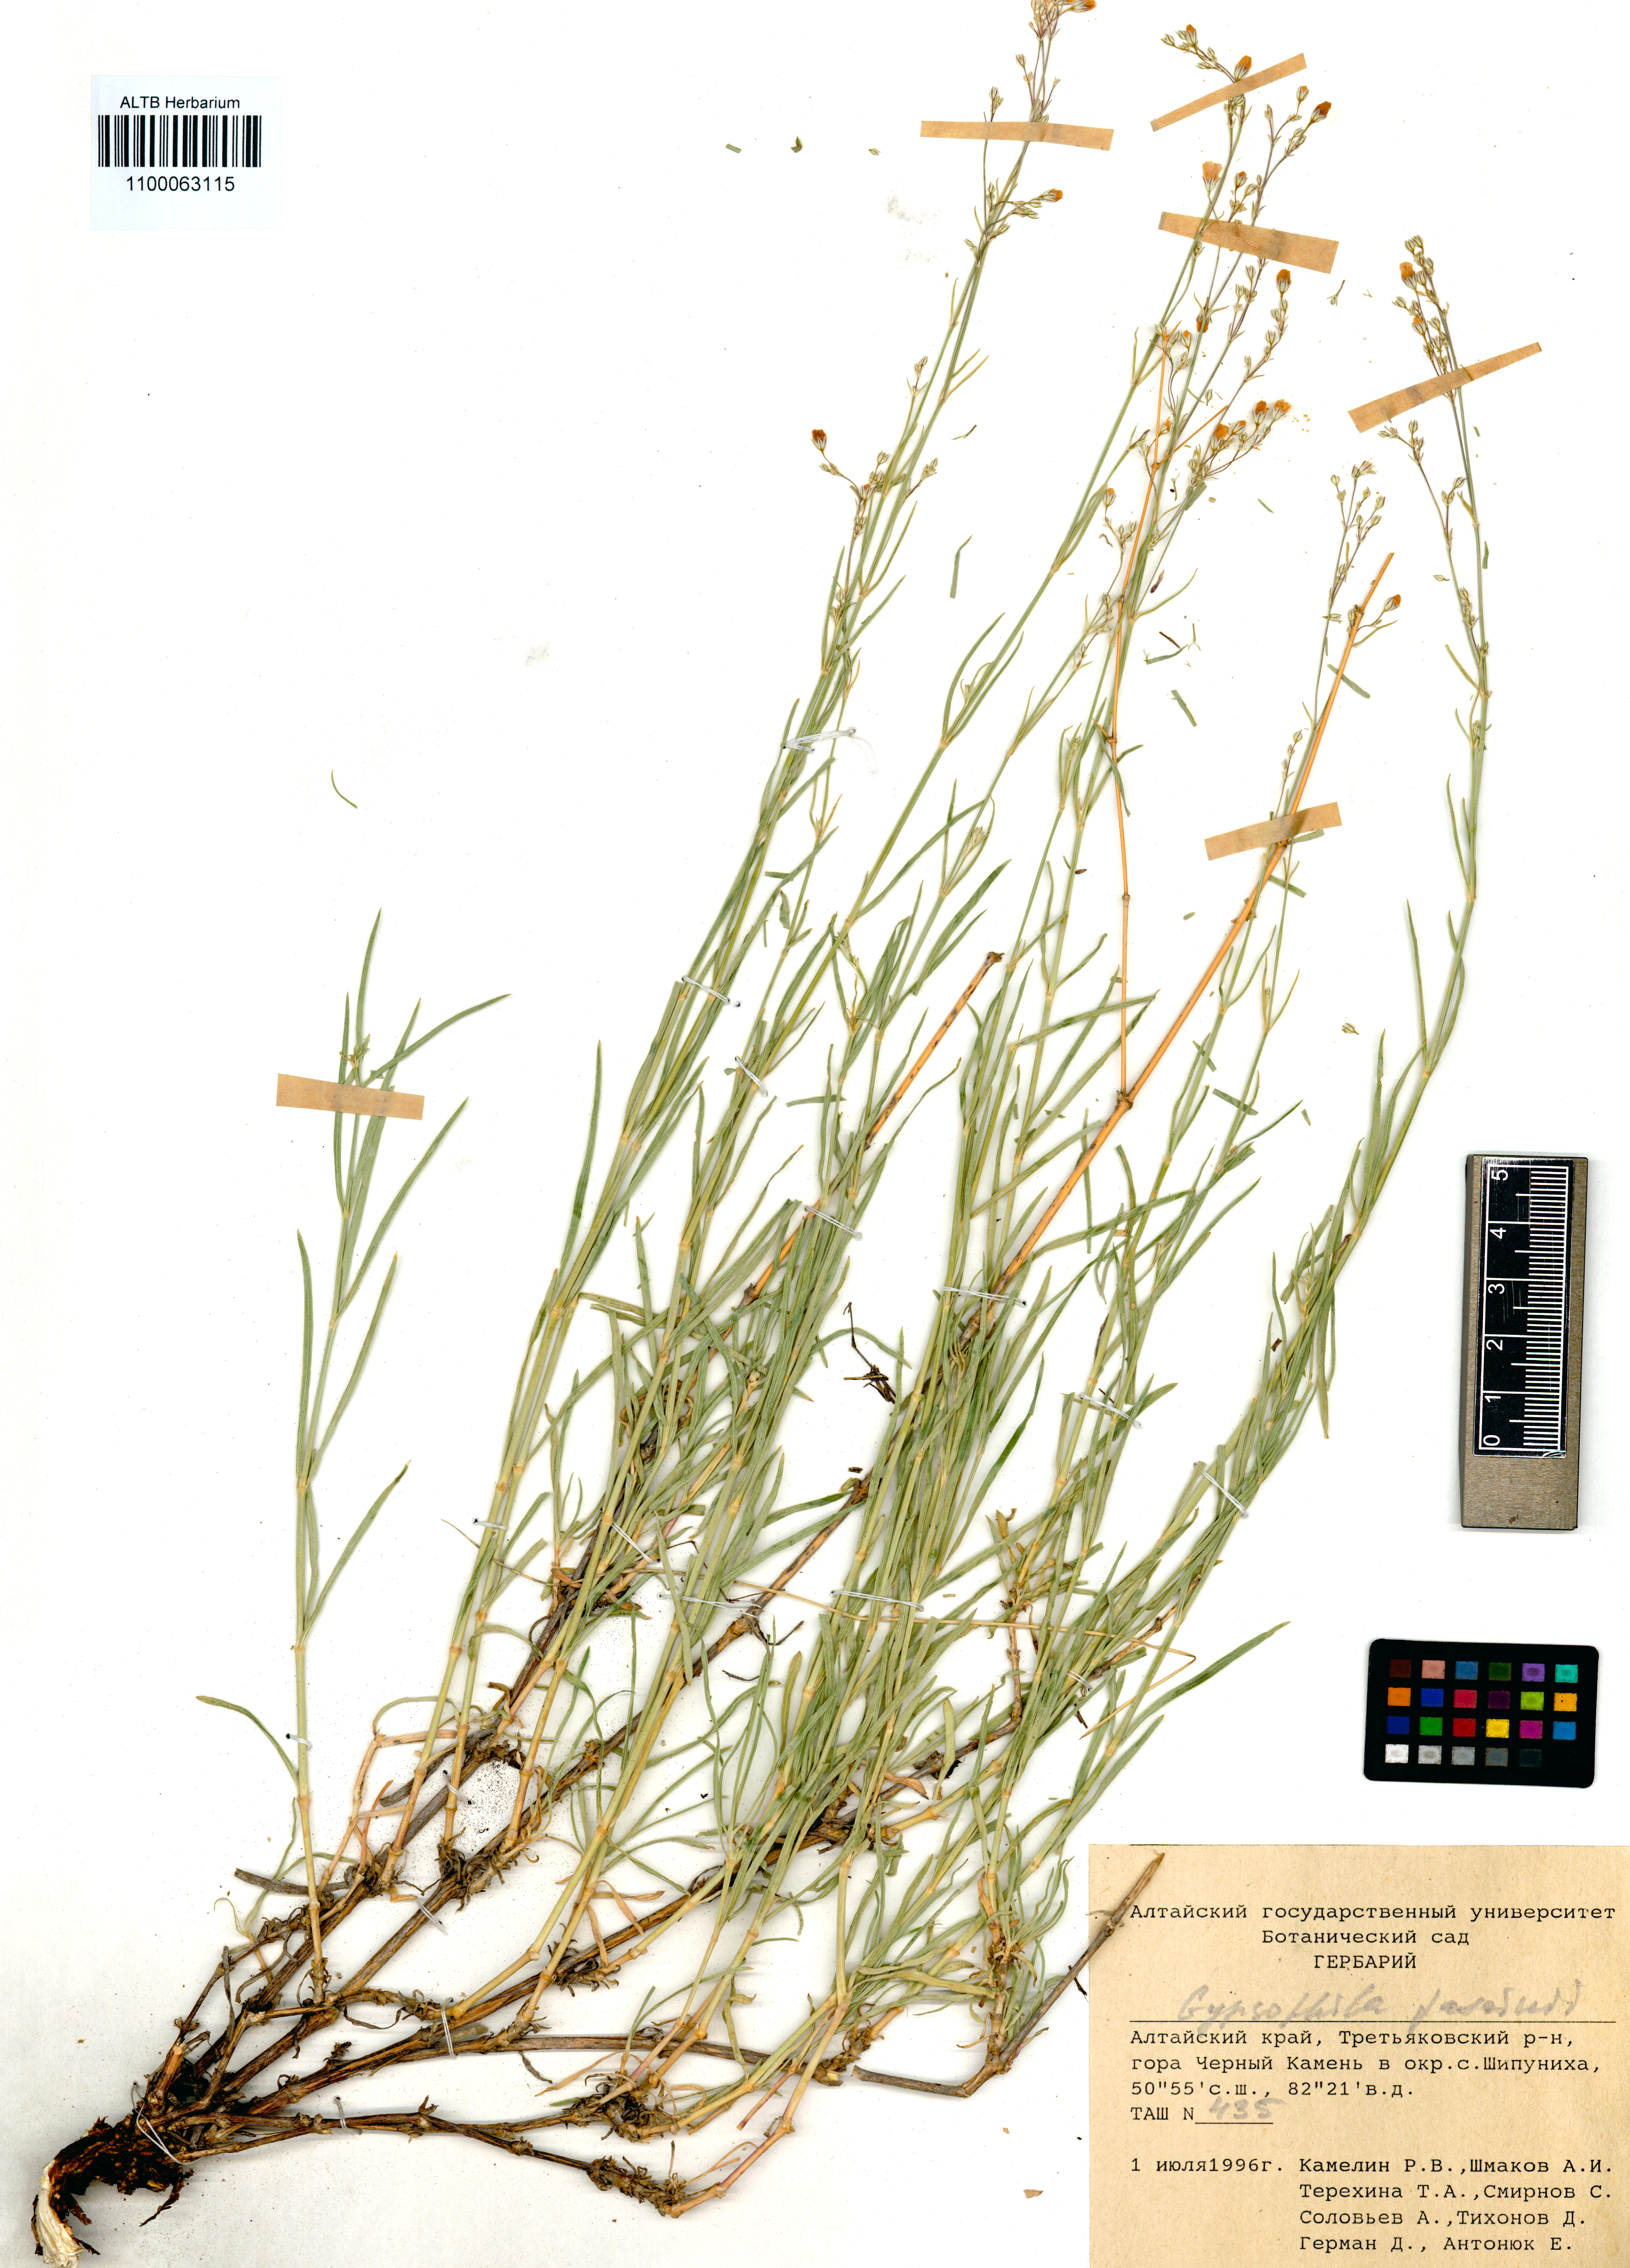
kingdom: Plantae
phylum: Tracheophyta
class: Magnoliopsida
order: Caryophyllales
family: Caryophyllaceae
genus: Gypsophila
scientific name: Gypsophila patrinii
